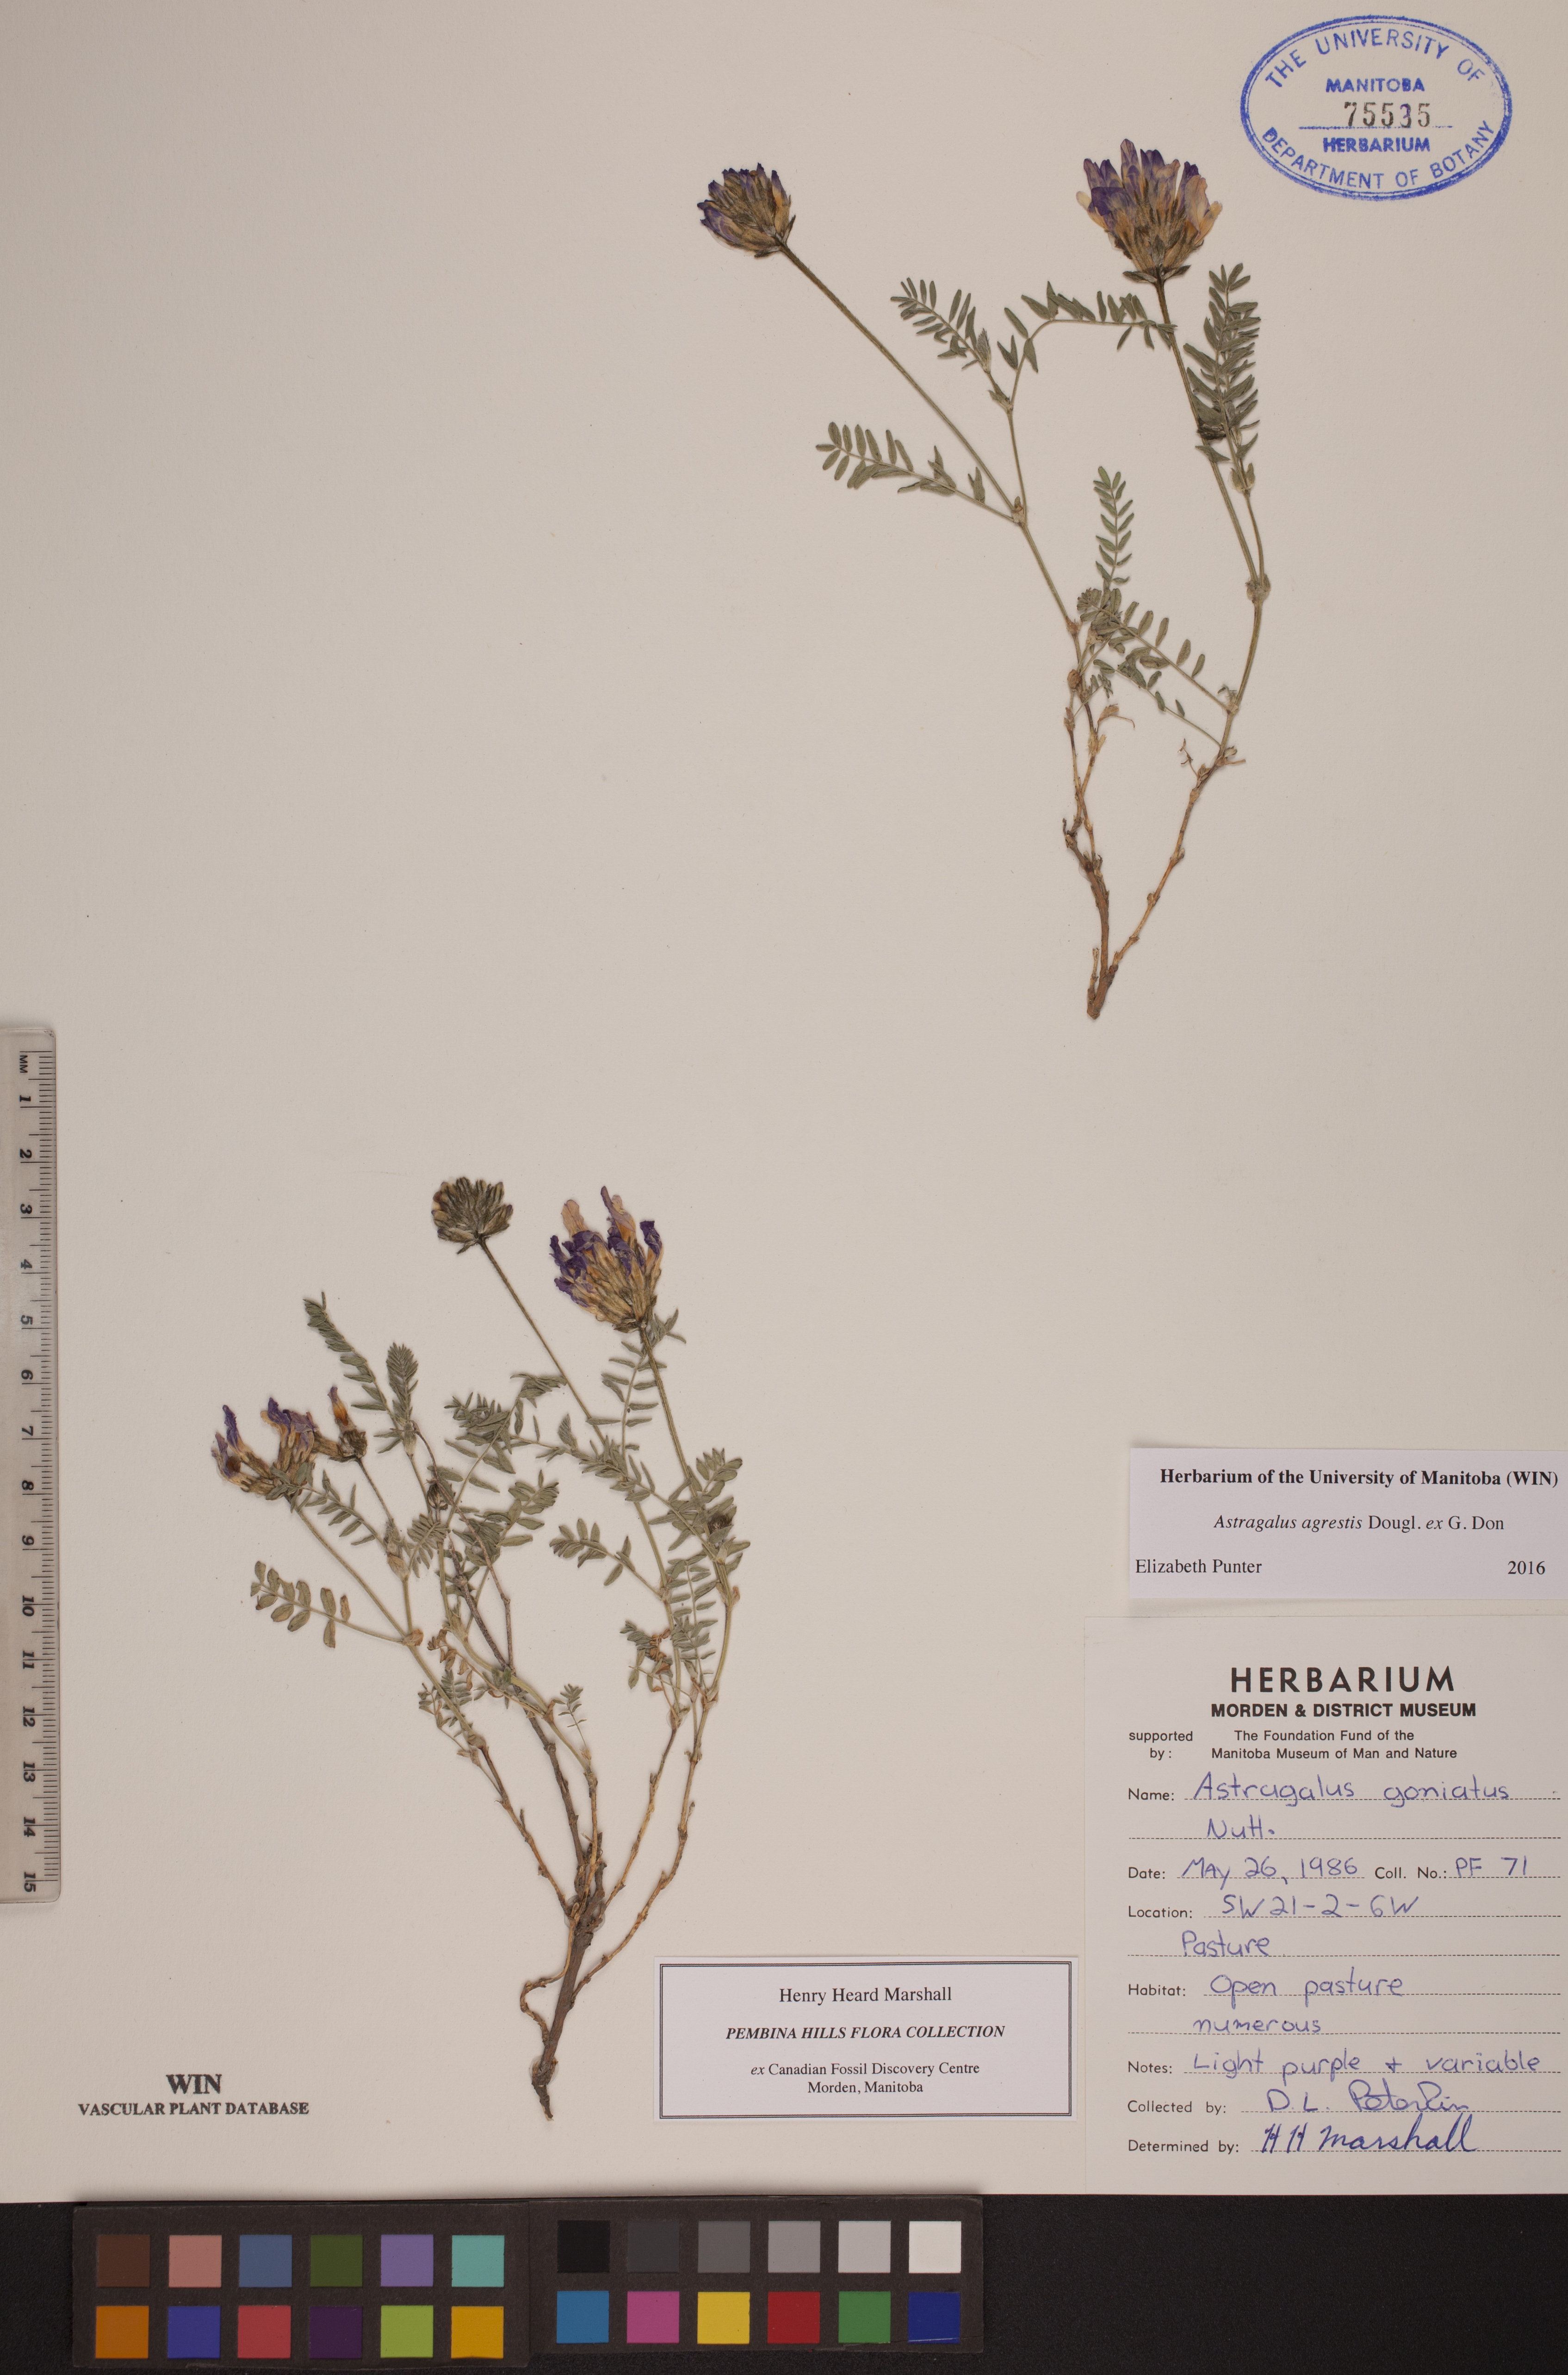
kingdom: Plantae
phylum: Tracheophyta
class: Magnoliopsida
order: Fabales
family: Fabaceae
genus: Astragalus
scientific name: Astragalus agrestis
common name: Field milk-vetch
